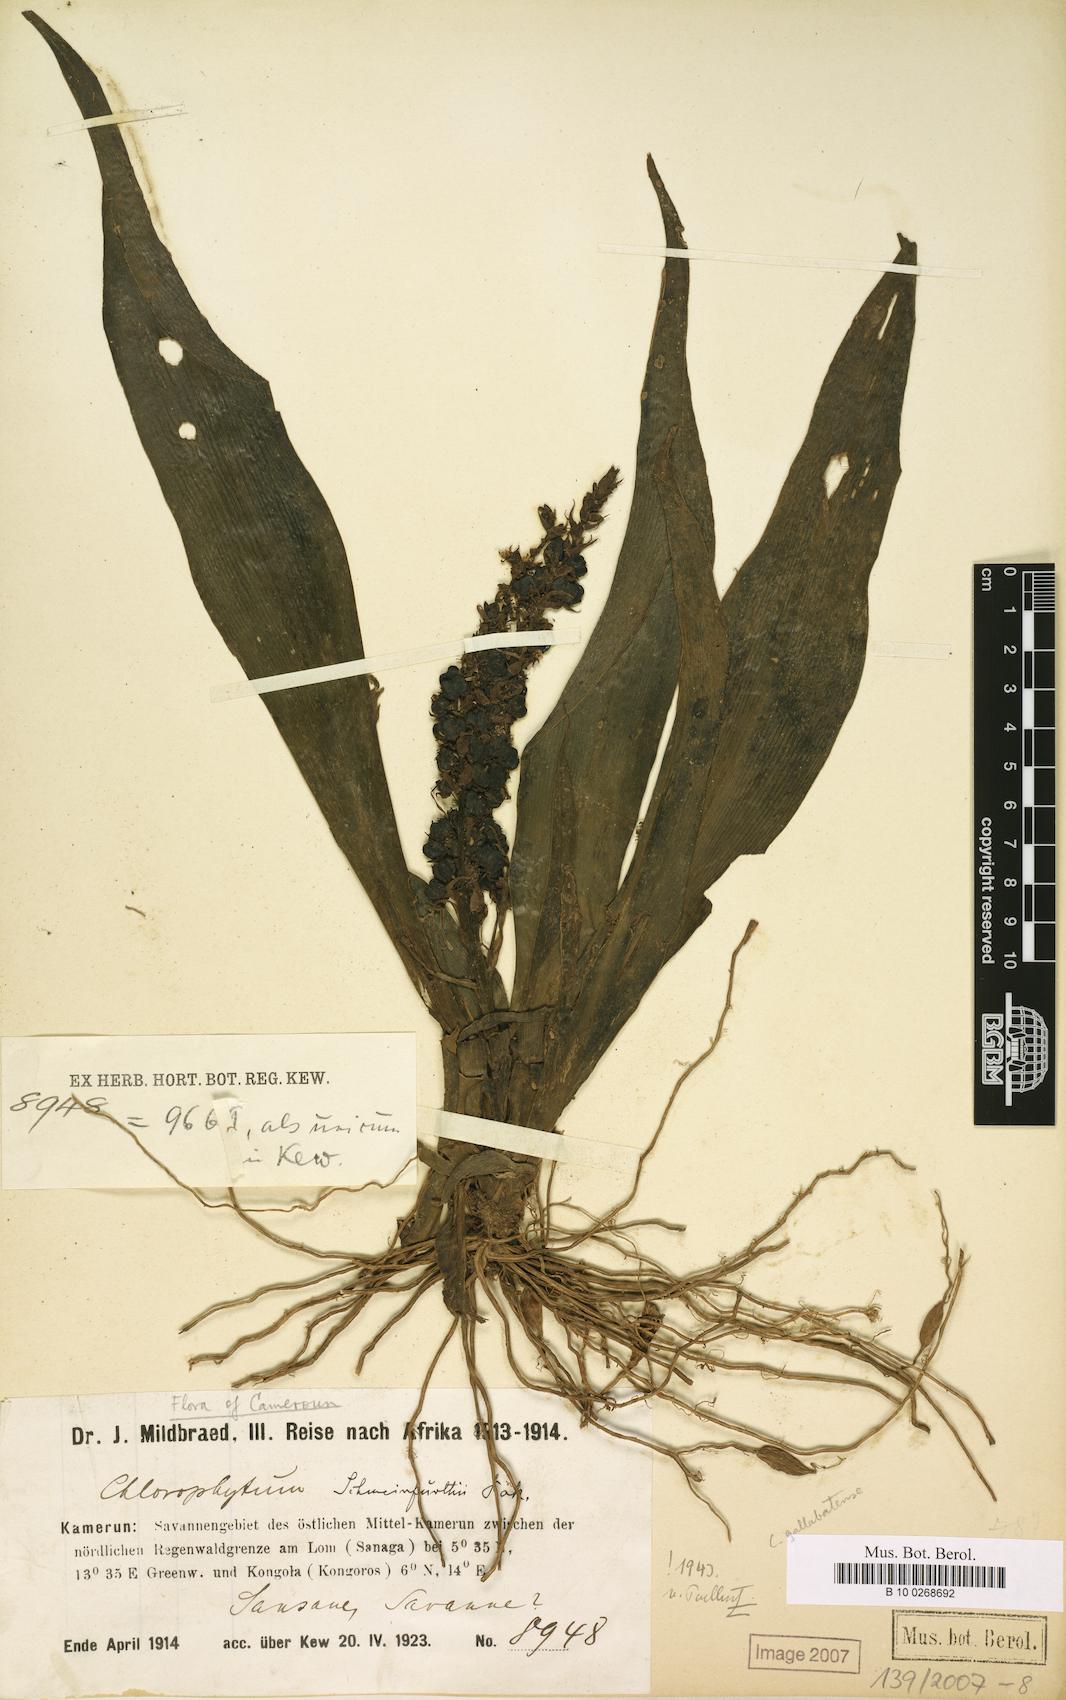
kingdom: Plantae
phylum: Tracheophyta
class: Liliopsida
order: Asparagales
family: Asparagaceae
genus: Chlorophytum
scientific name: Chlorophytum stenopetalum
